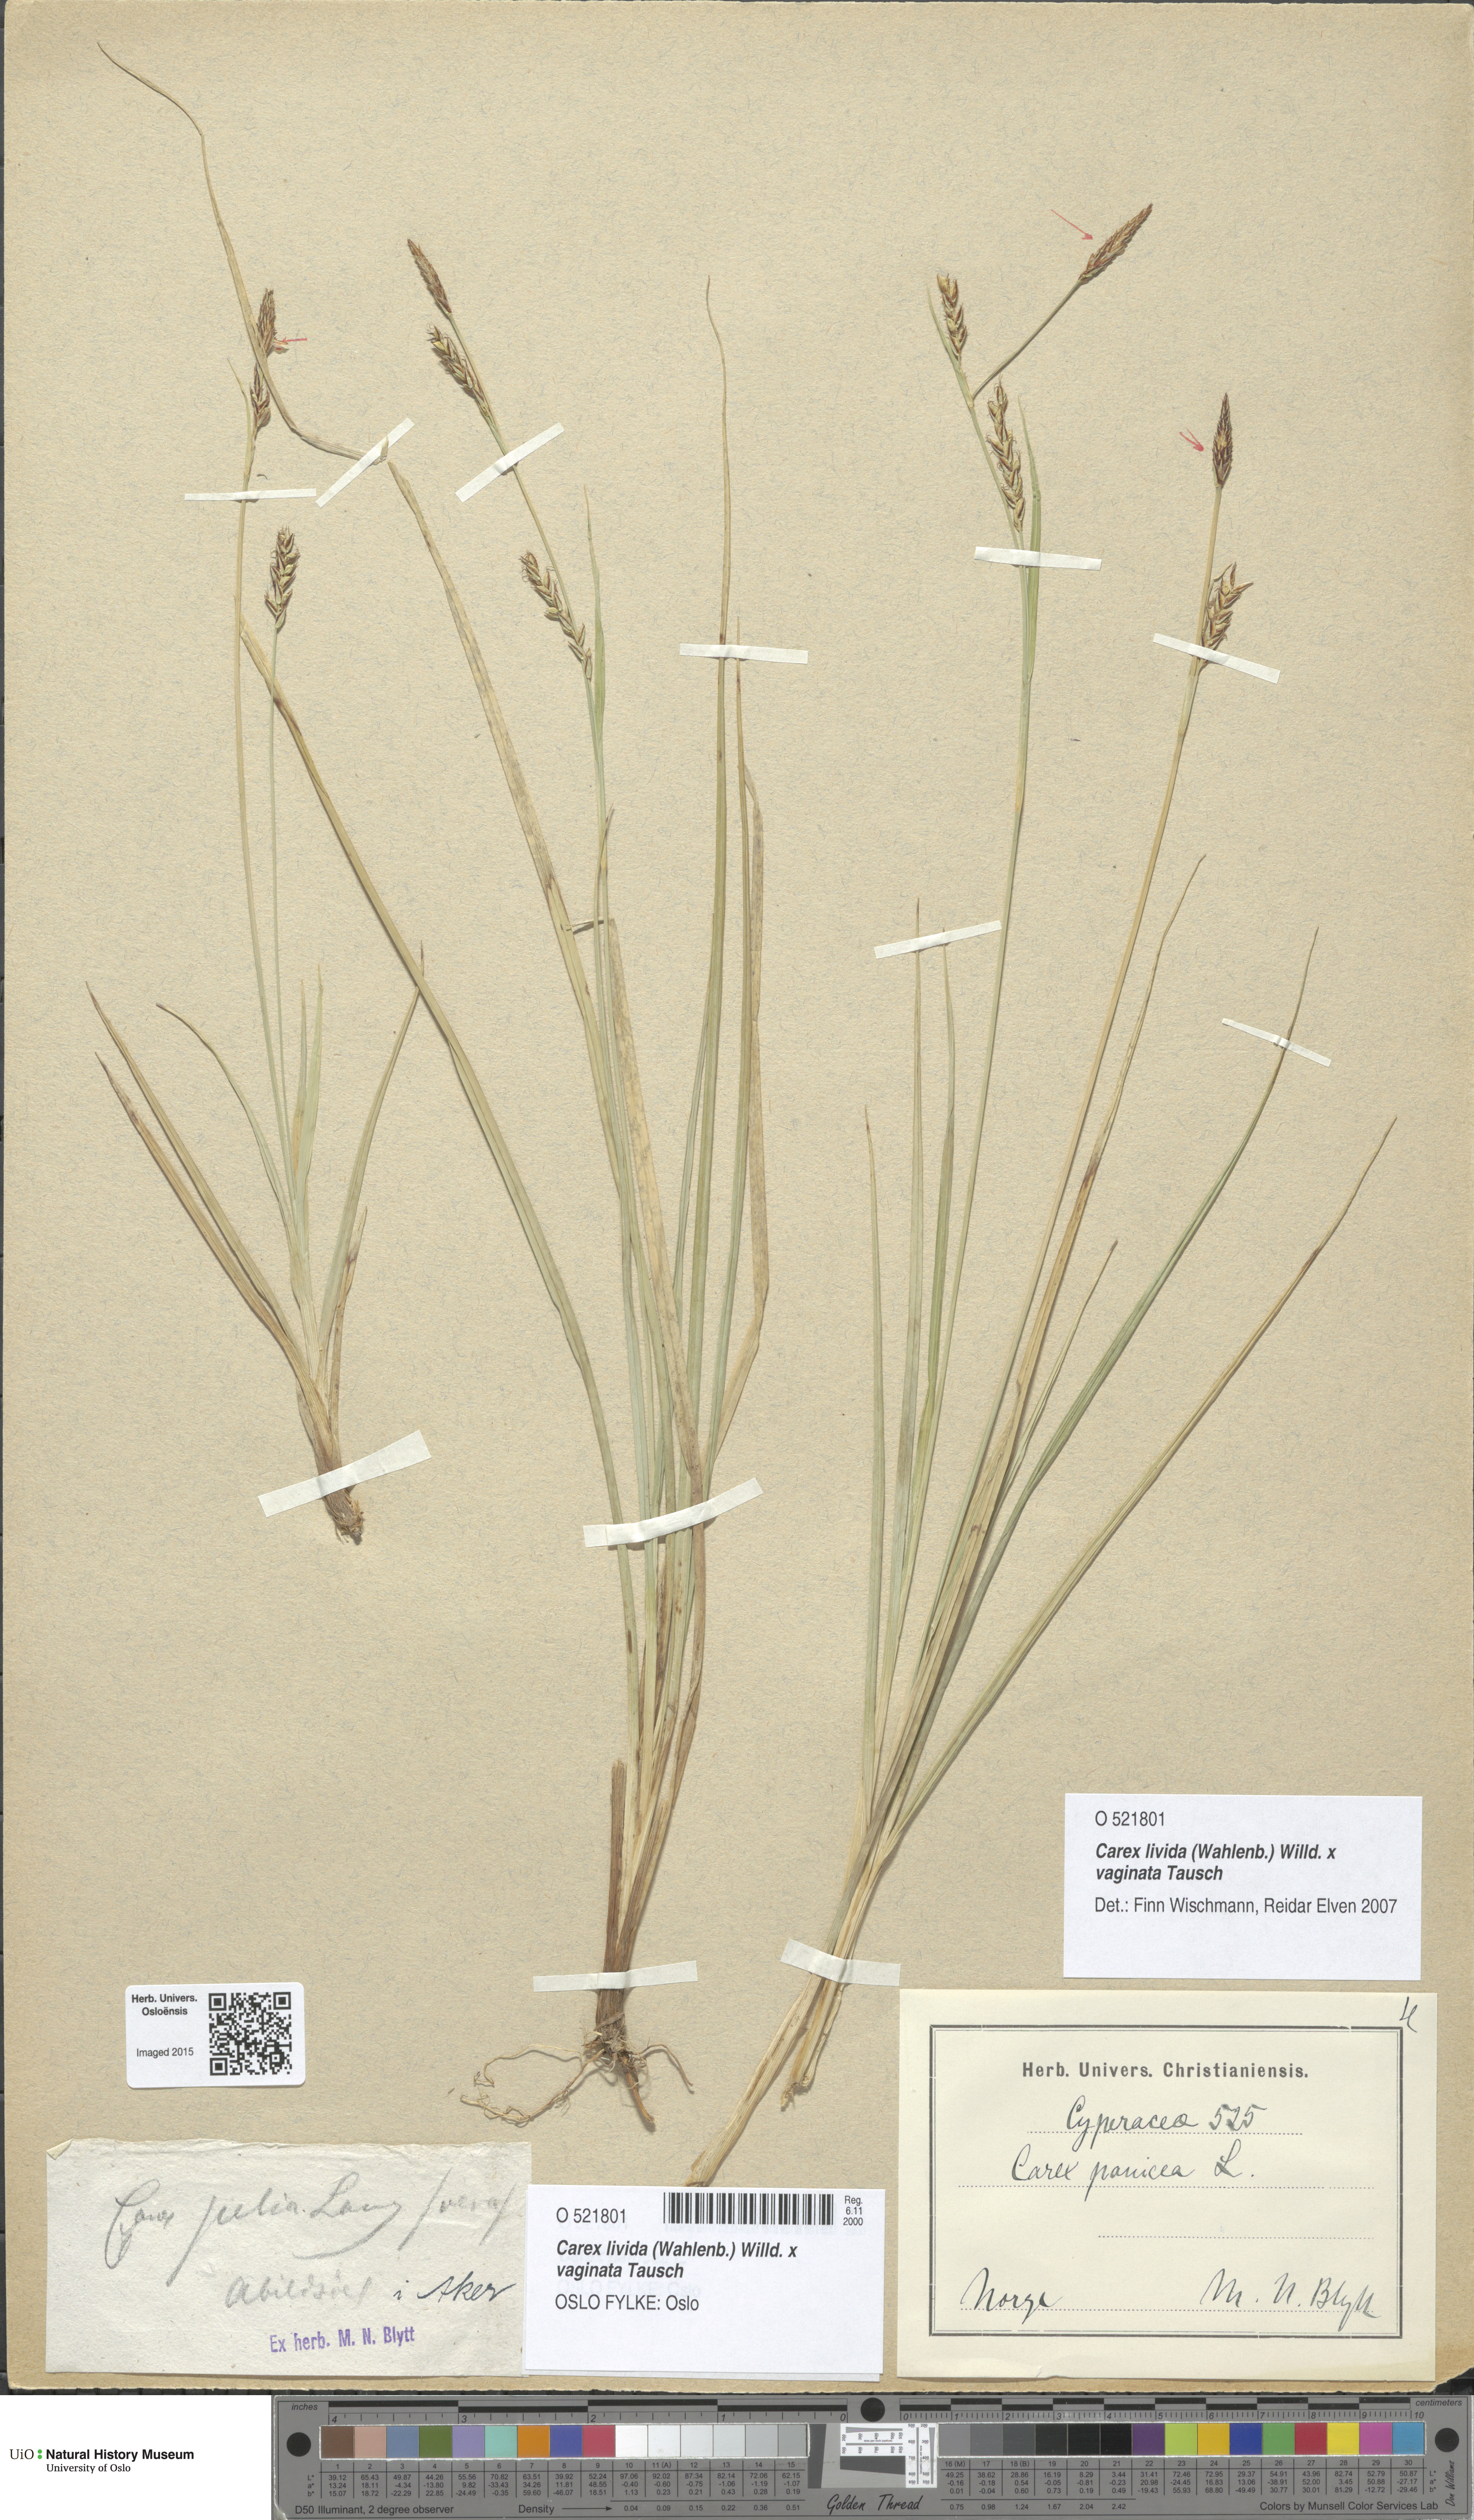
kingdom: Plantae
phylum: Tracheophyta
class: Liliopsida
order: Poales
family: Cyperaceae
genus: Carex
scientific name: Carex
